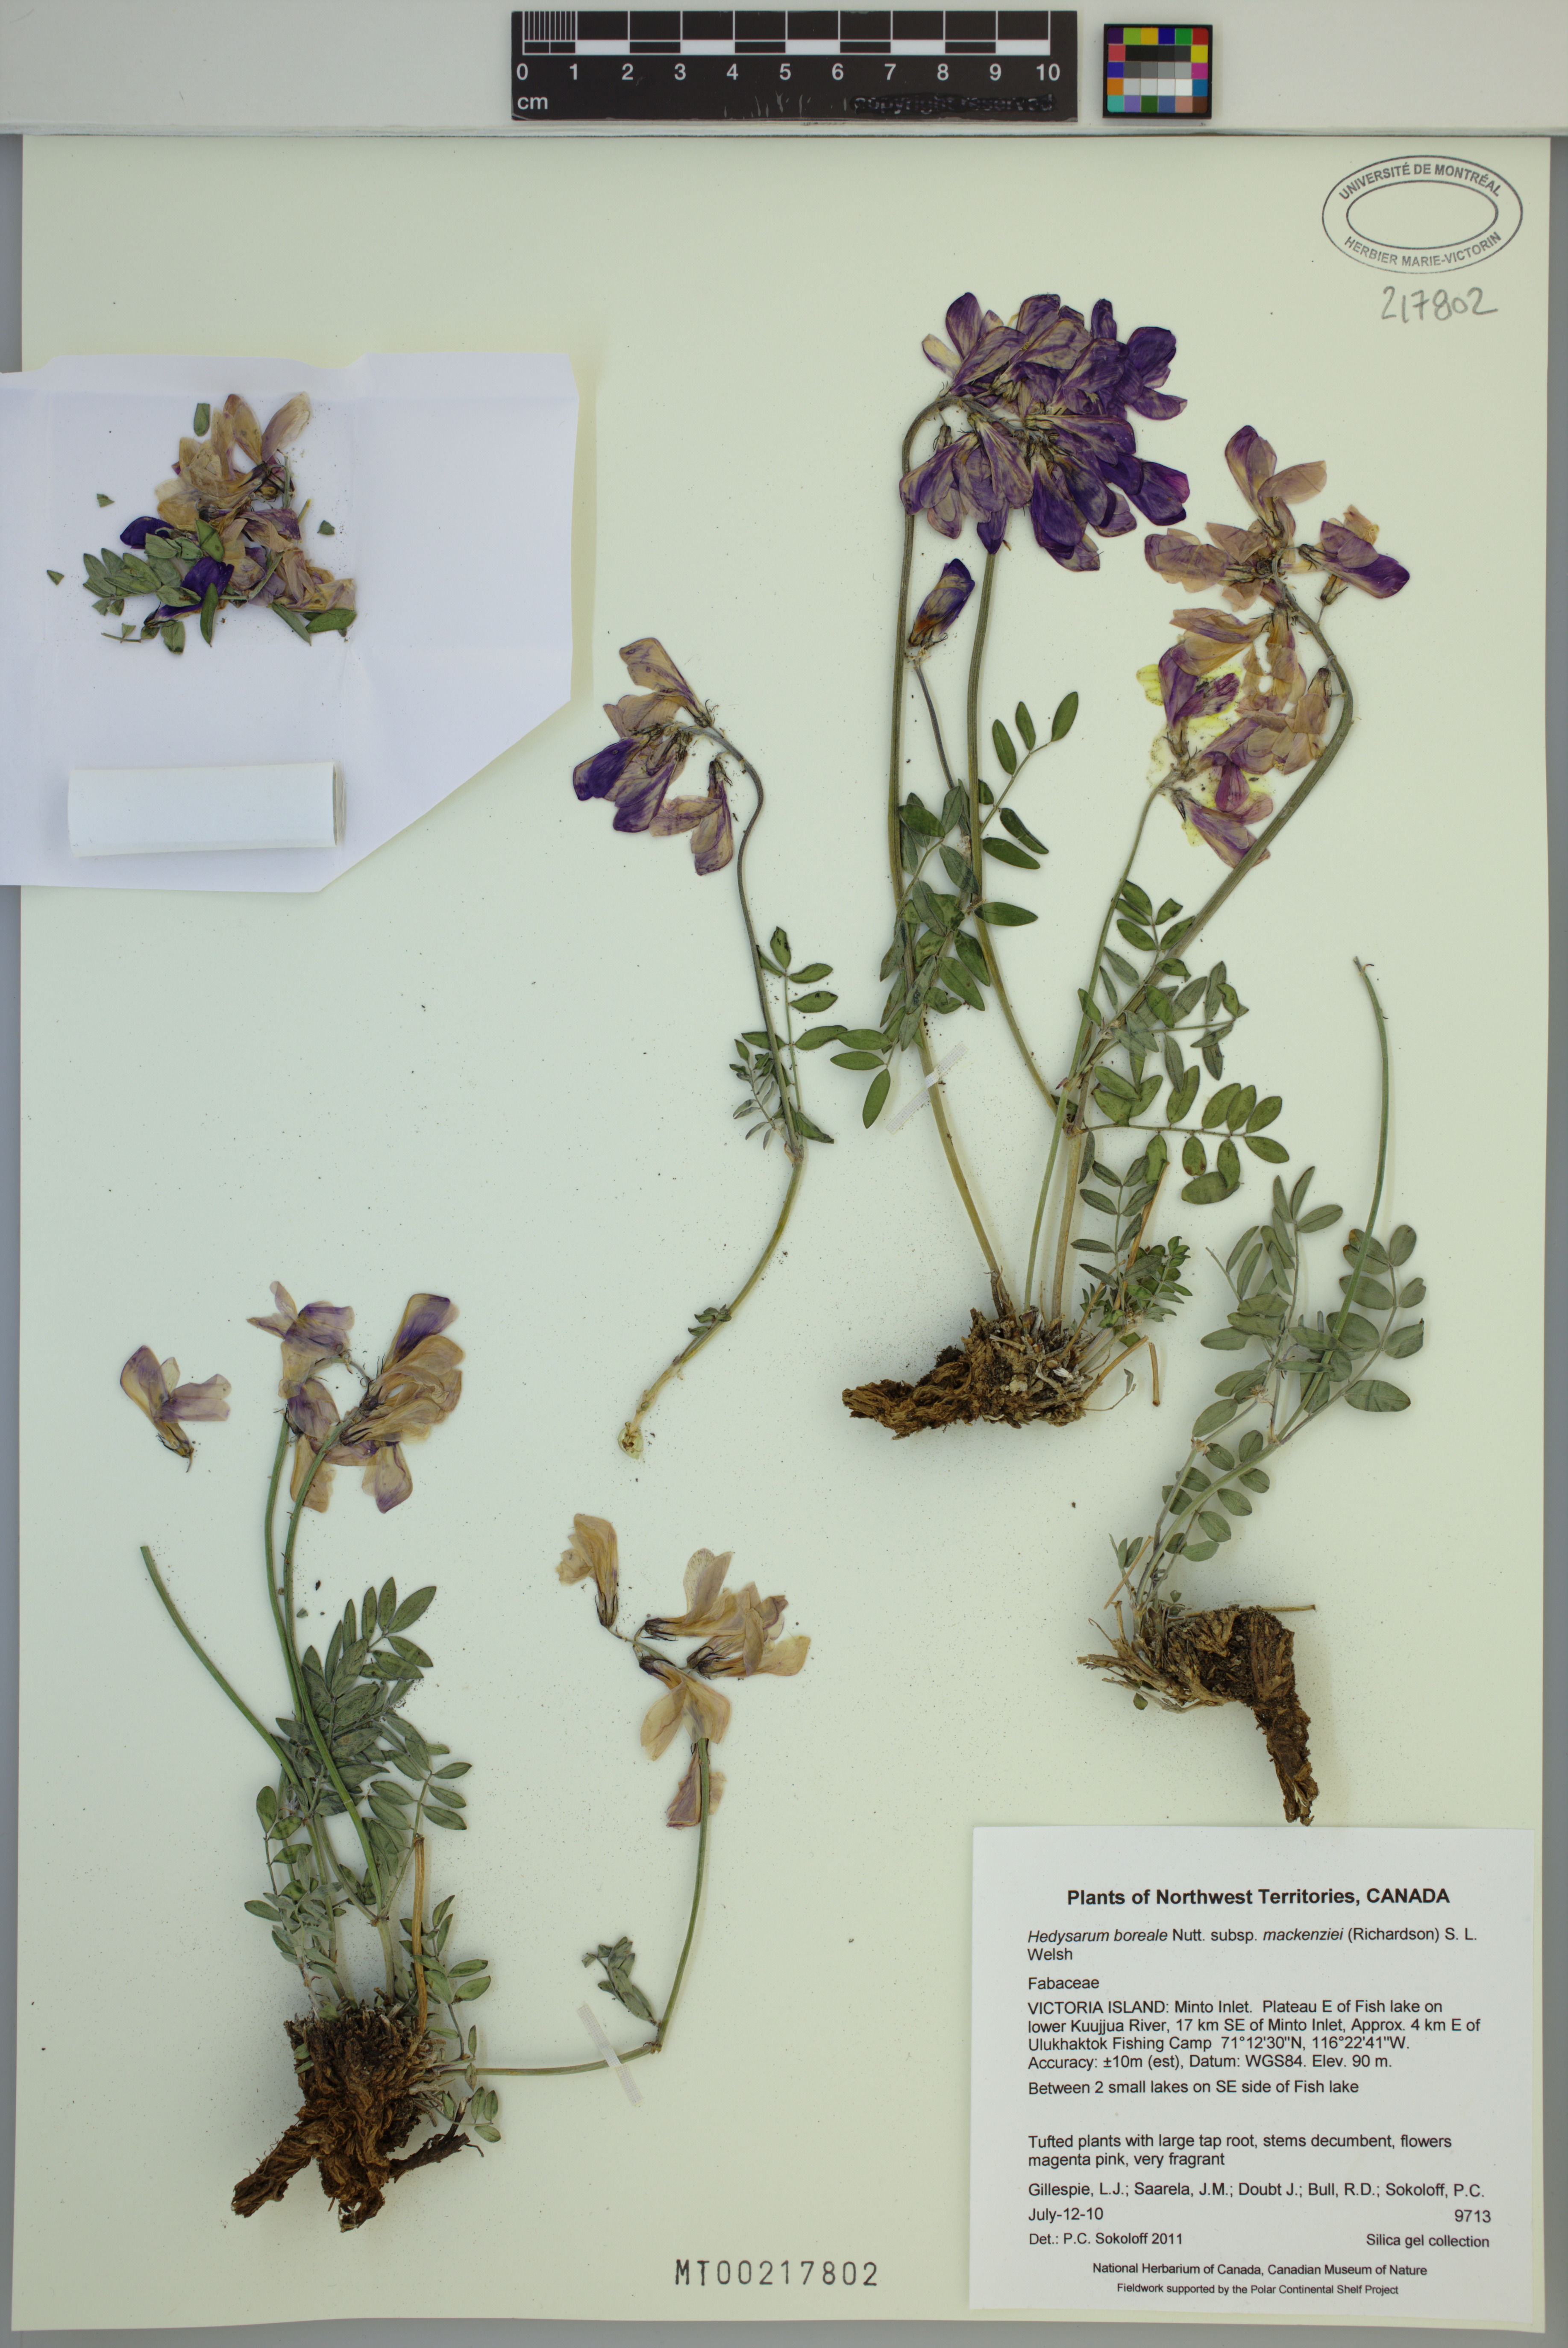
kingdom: Plantae
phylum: Tracheophyta
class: Magnoliopsida
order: Fabales
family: Fabaceae
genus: Hedysarum
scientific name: Hedysarum boreale
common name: Northern sweet-vetch
